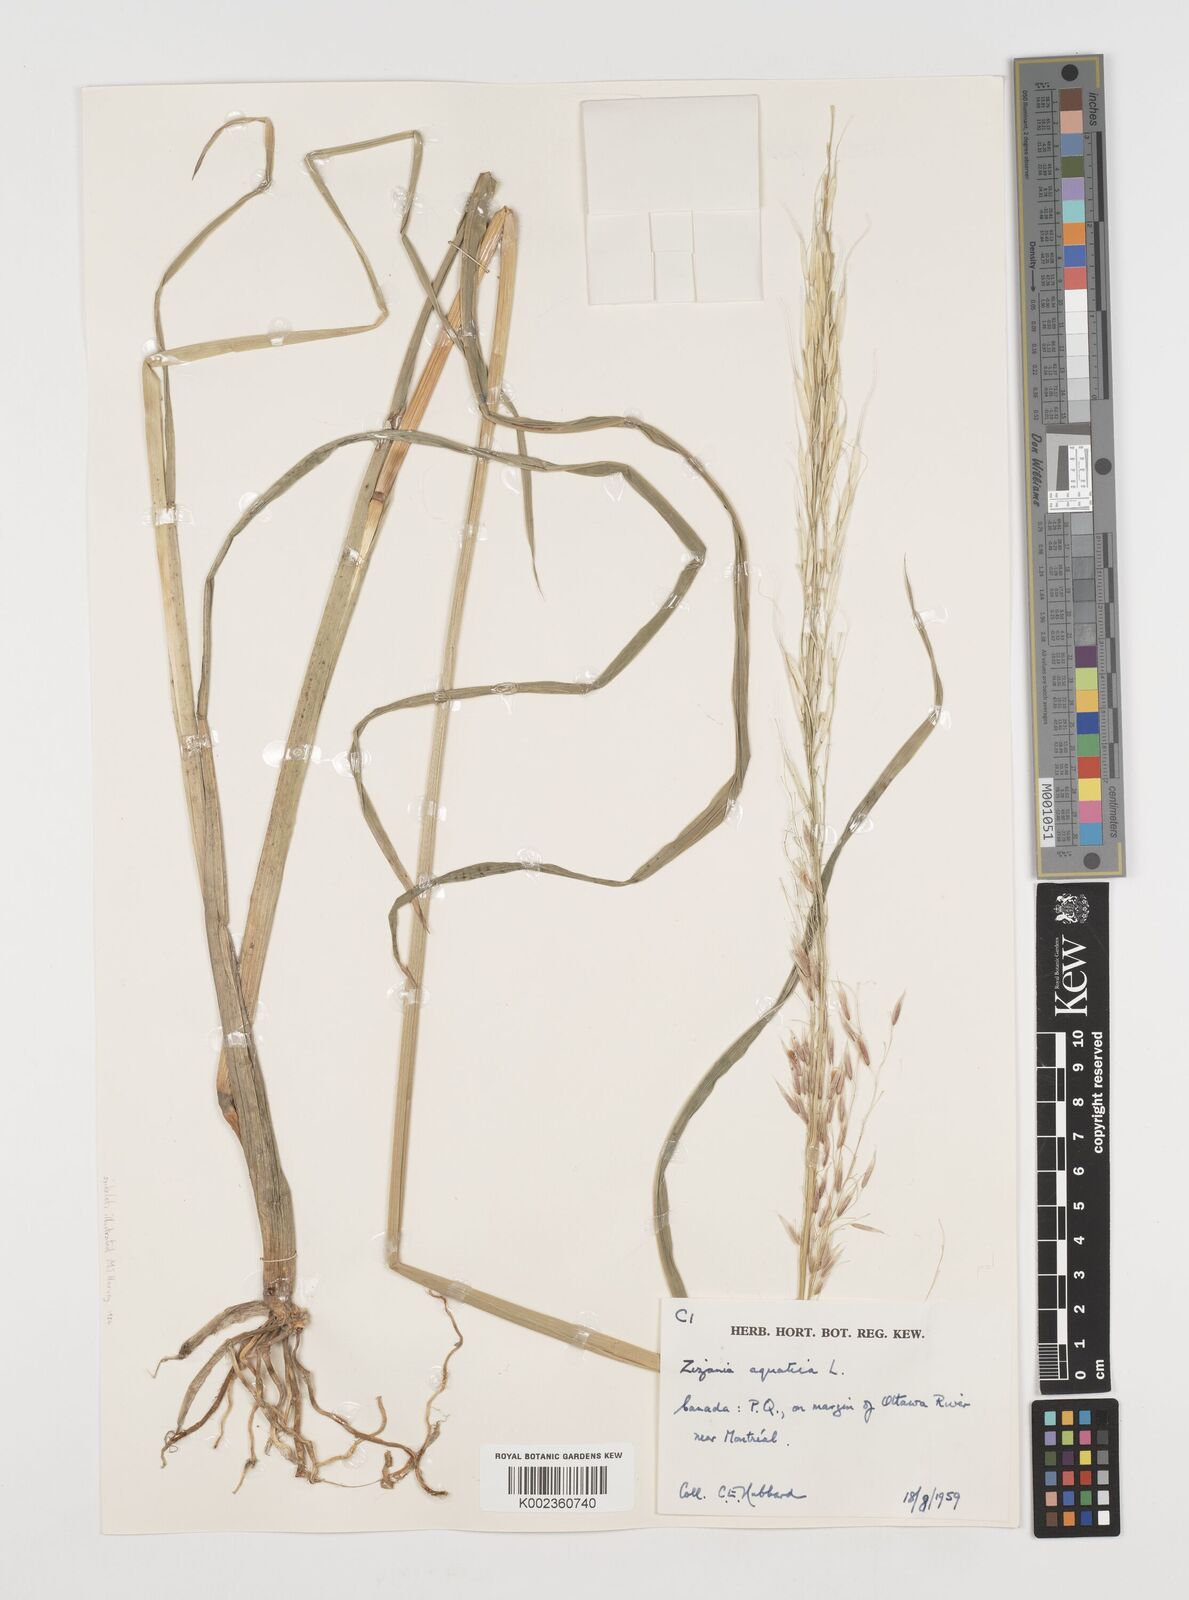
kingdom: Plantae
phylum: Tracheophyta
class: Liliopsida
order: Poales
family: Poaceae
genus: Zizania
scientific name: Zizania aquatica
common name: Annual wildrice
